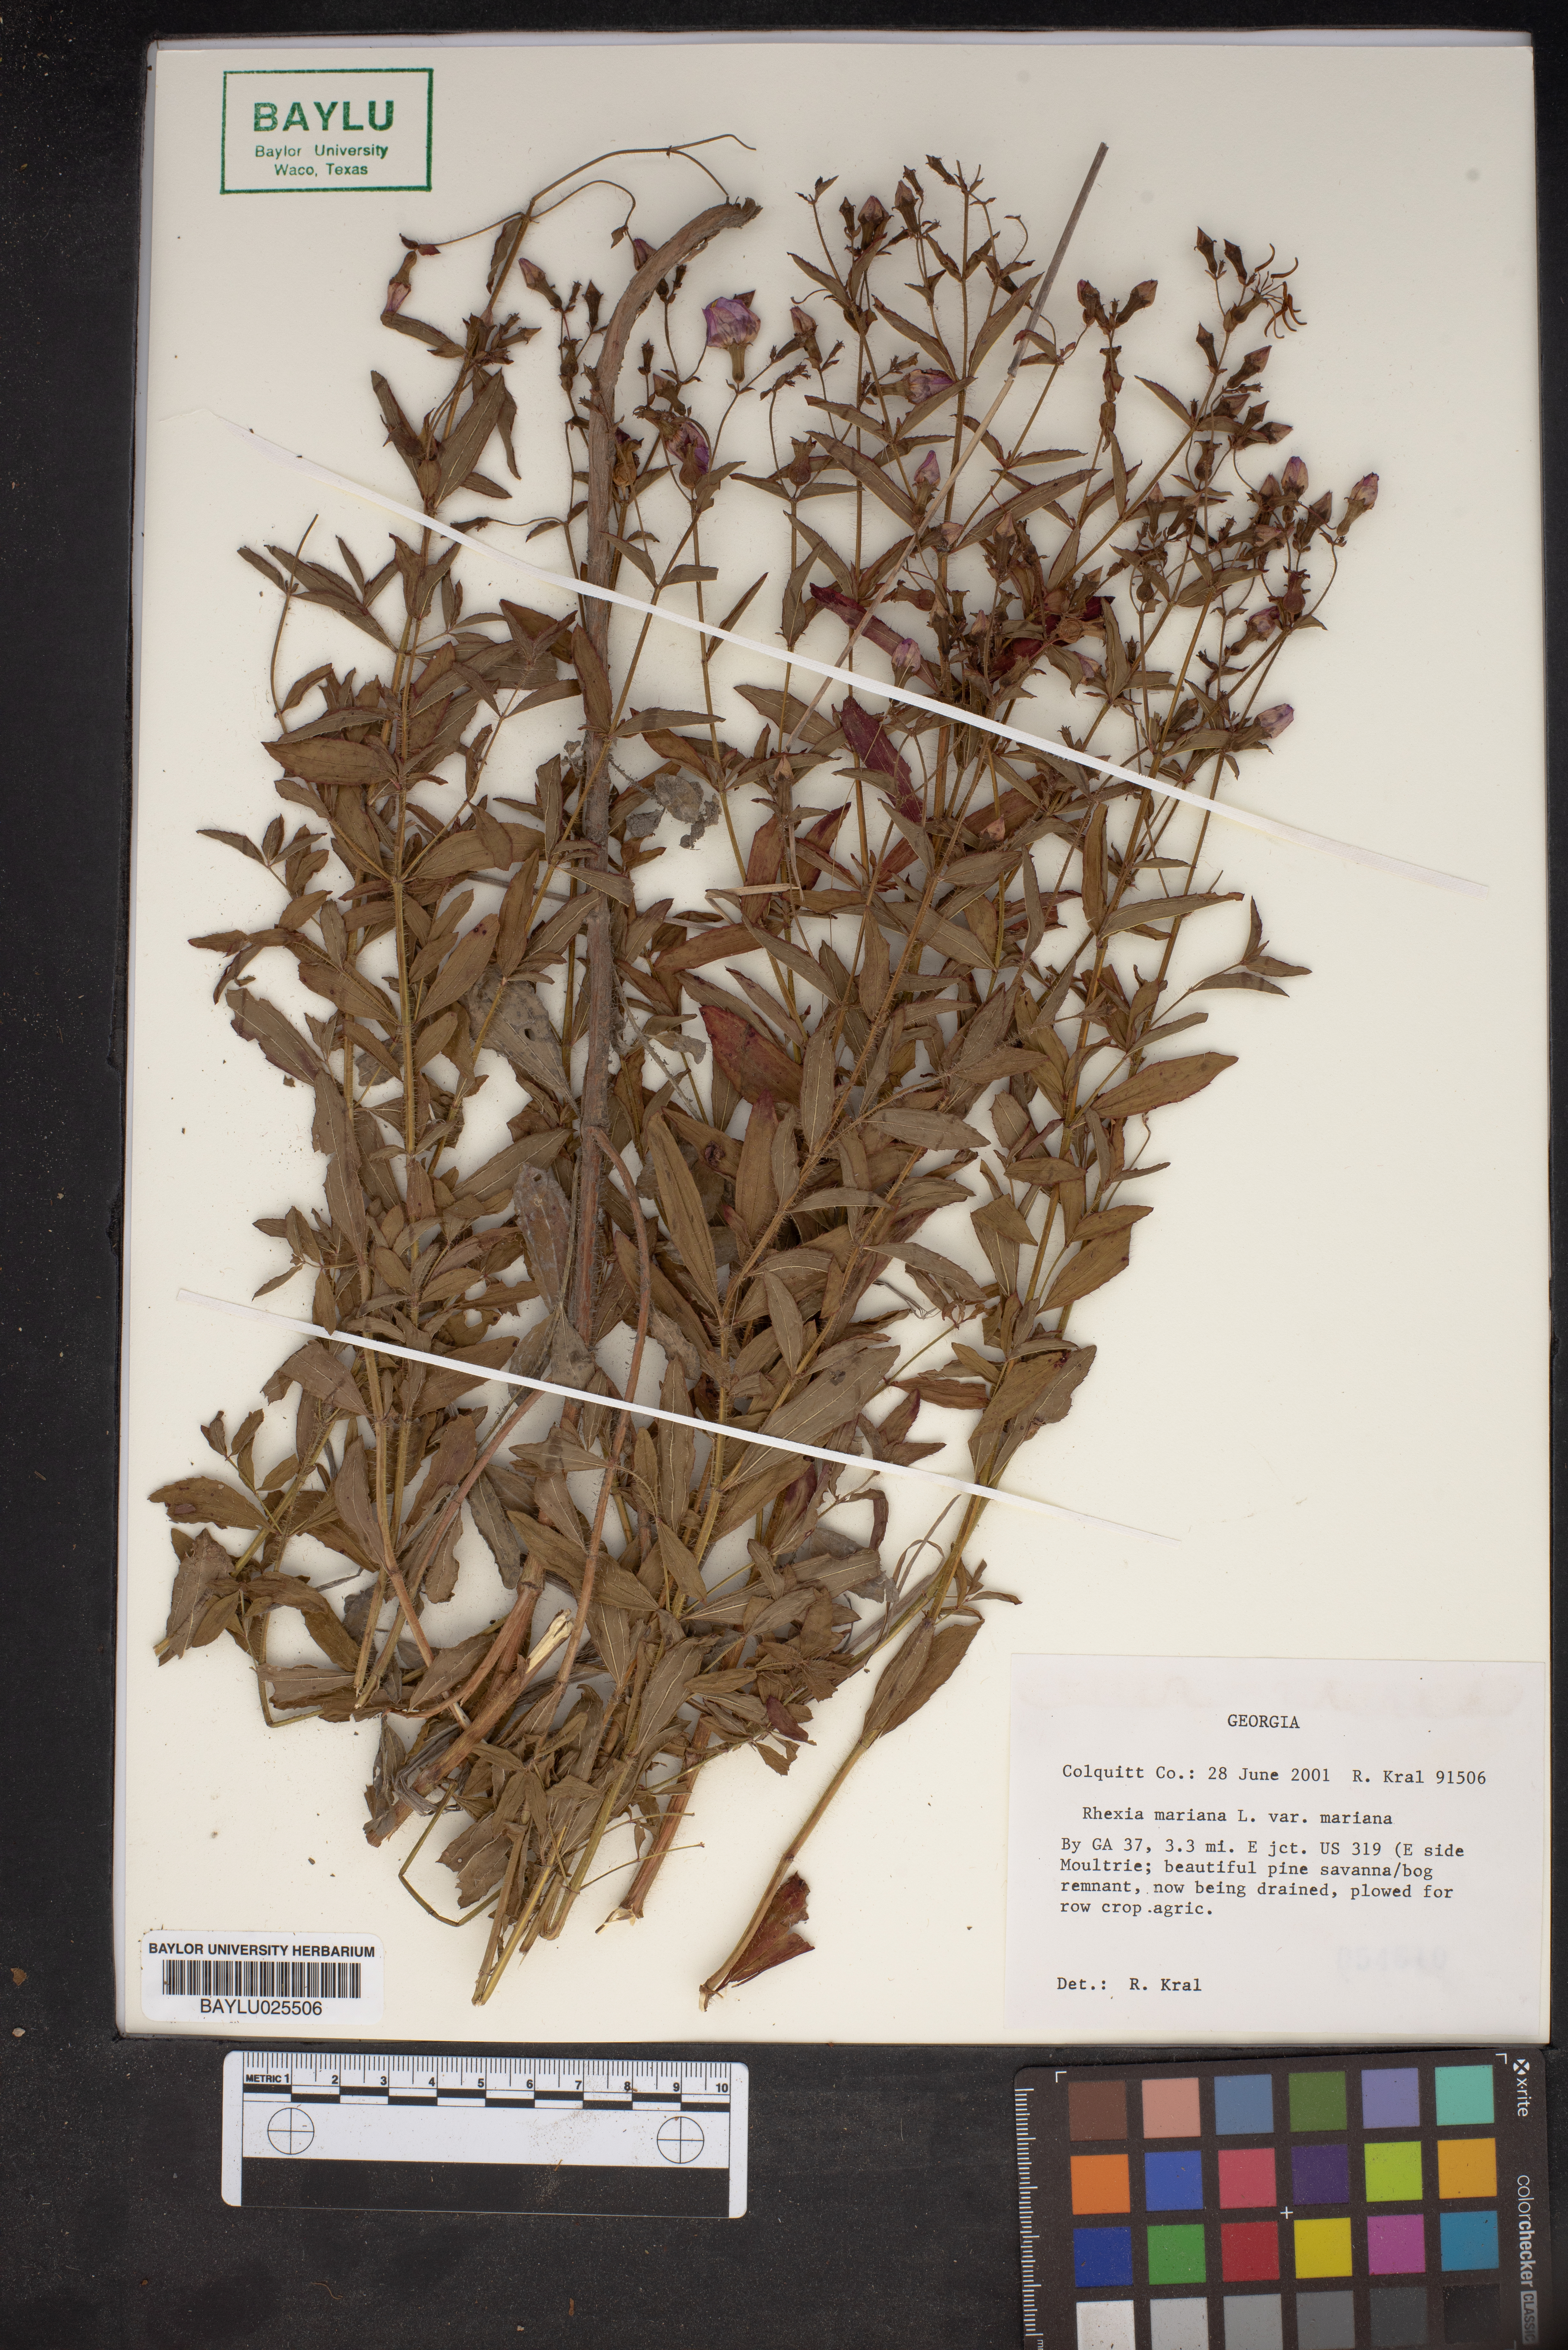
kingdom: Plantae
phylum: Tracheophyta
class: Magnoliopsida
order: Myrtales
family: Melastomataceae
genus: Rhexia
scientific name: Rhexia mariana
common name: Dull meadow-pitcher
